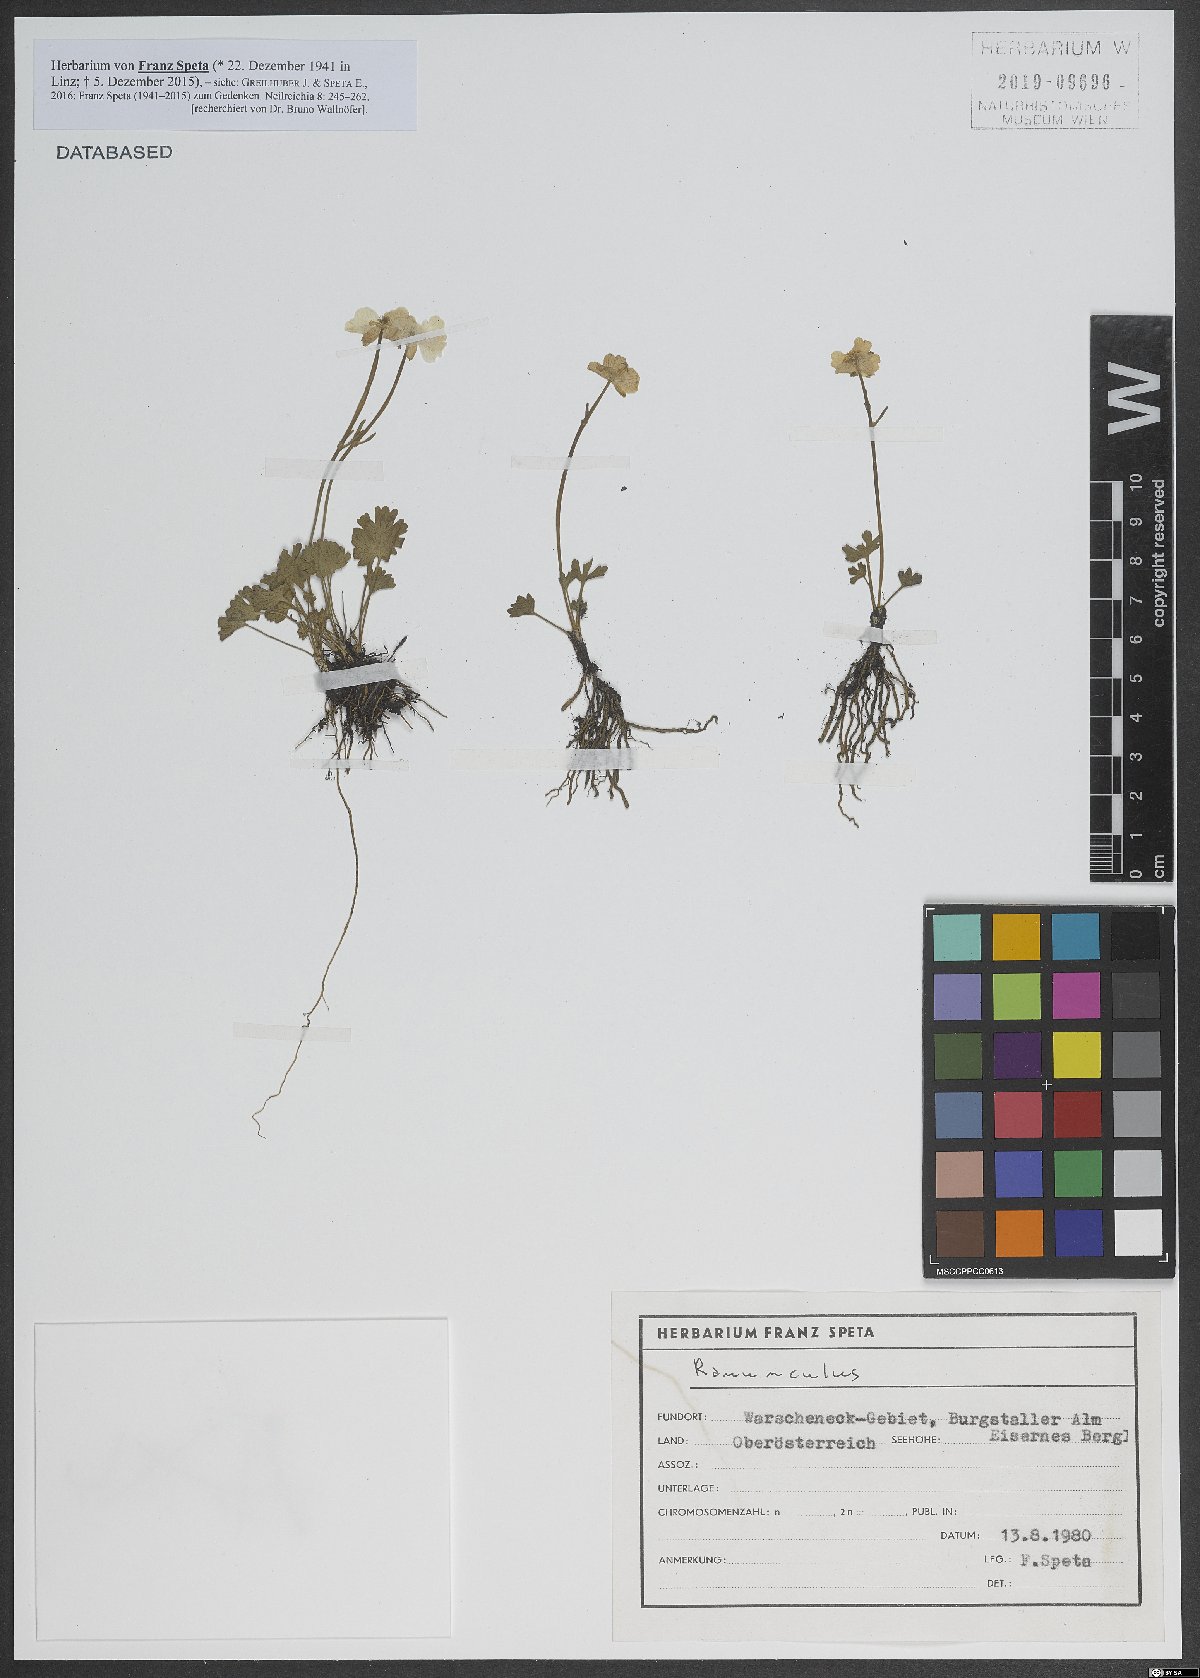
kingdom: Plantae
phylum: Tracheophyta
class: Magnoliopsida
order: Ranunculales
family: Ranunculaceae
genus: Ranunculus
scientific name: Ranunculus
